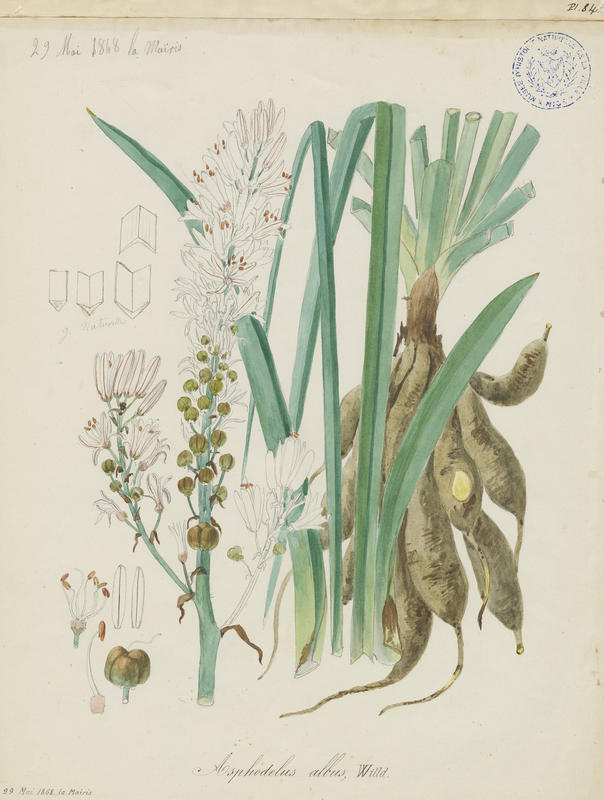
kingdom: Plantae
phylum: Tracheophyta
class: Liliopsida
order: Asparagales
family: Asphodelaceae
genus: Asphodelus
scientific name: Asphodelus albus
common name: White asphodel
